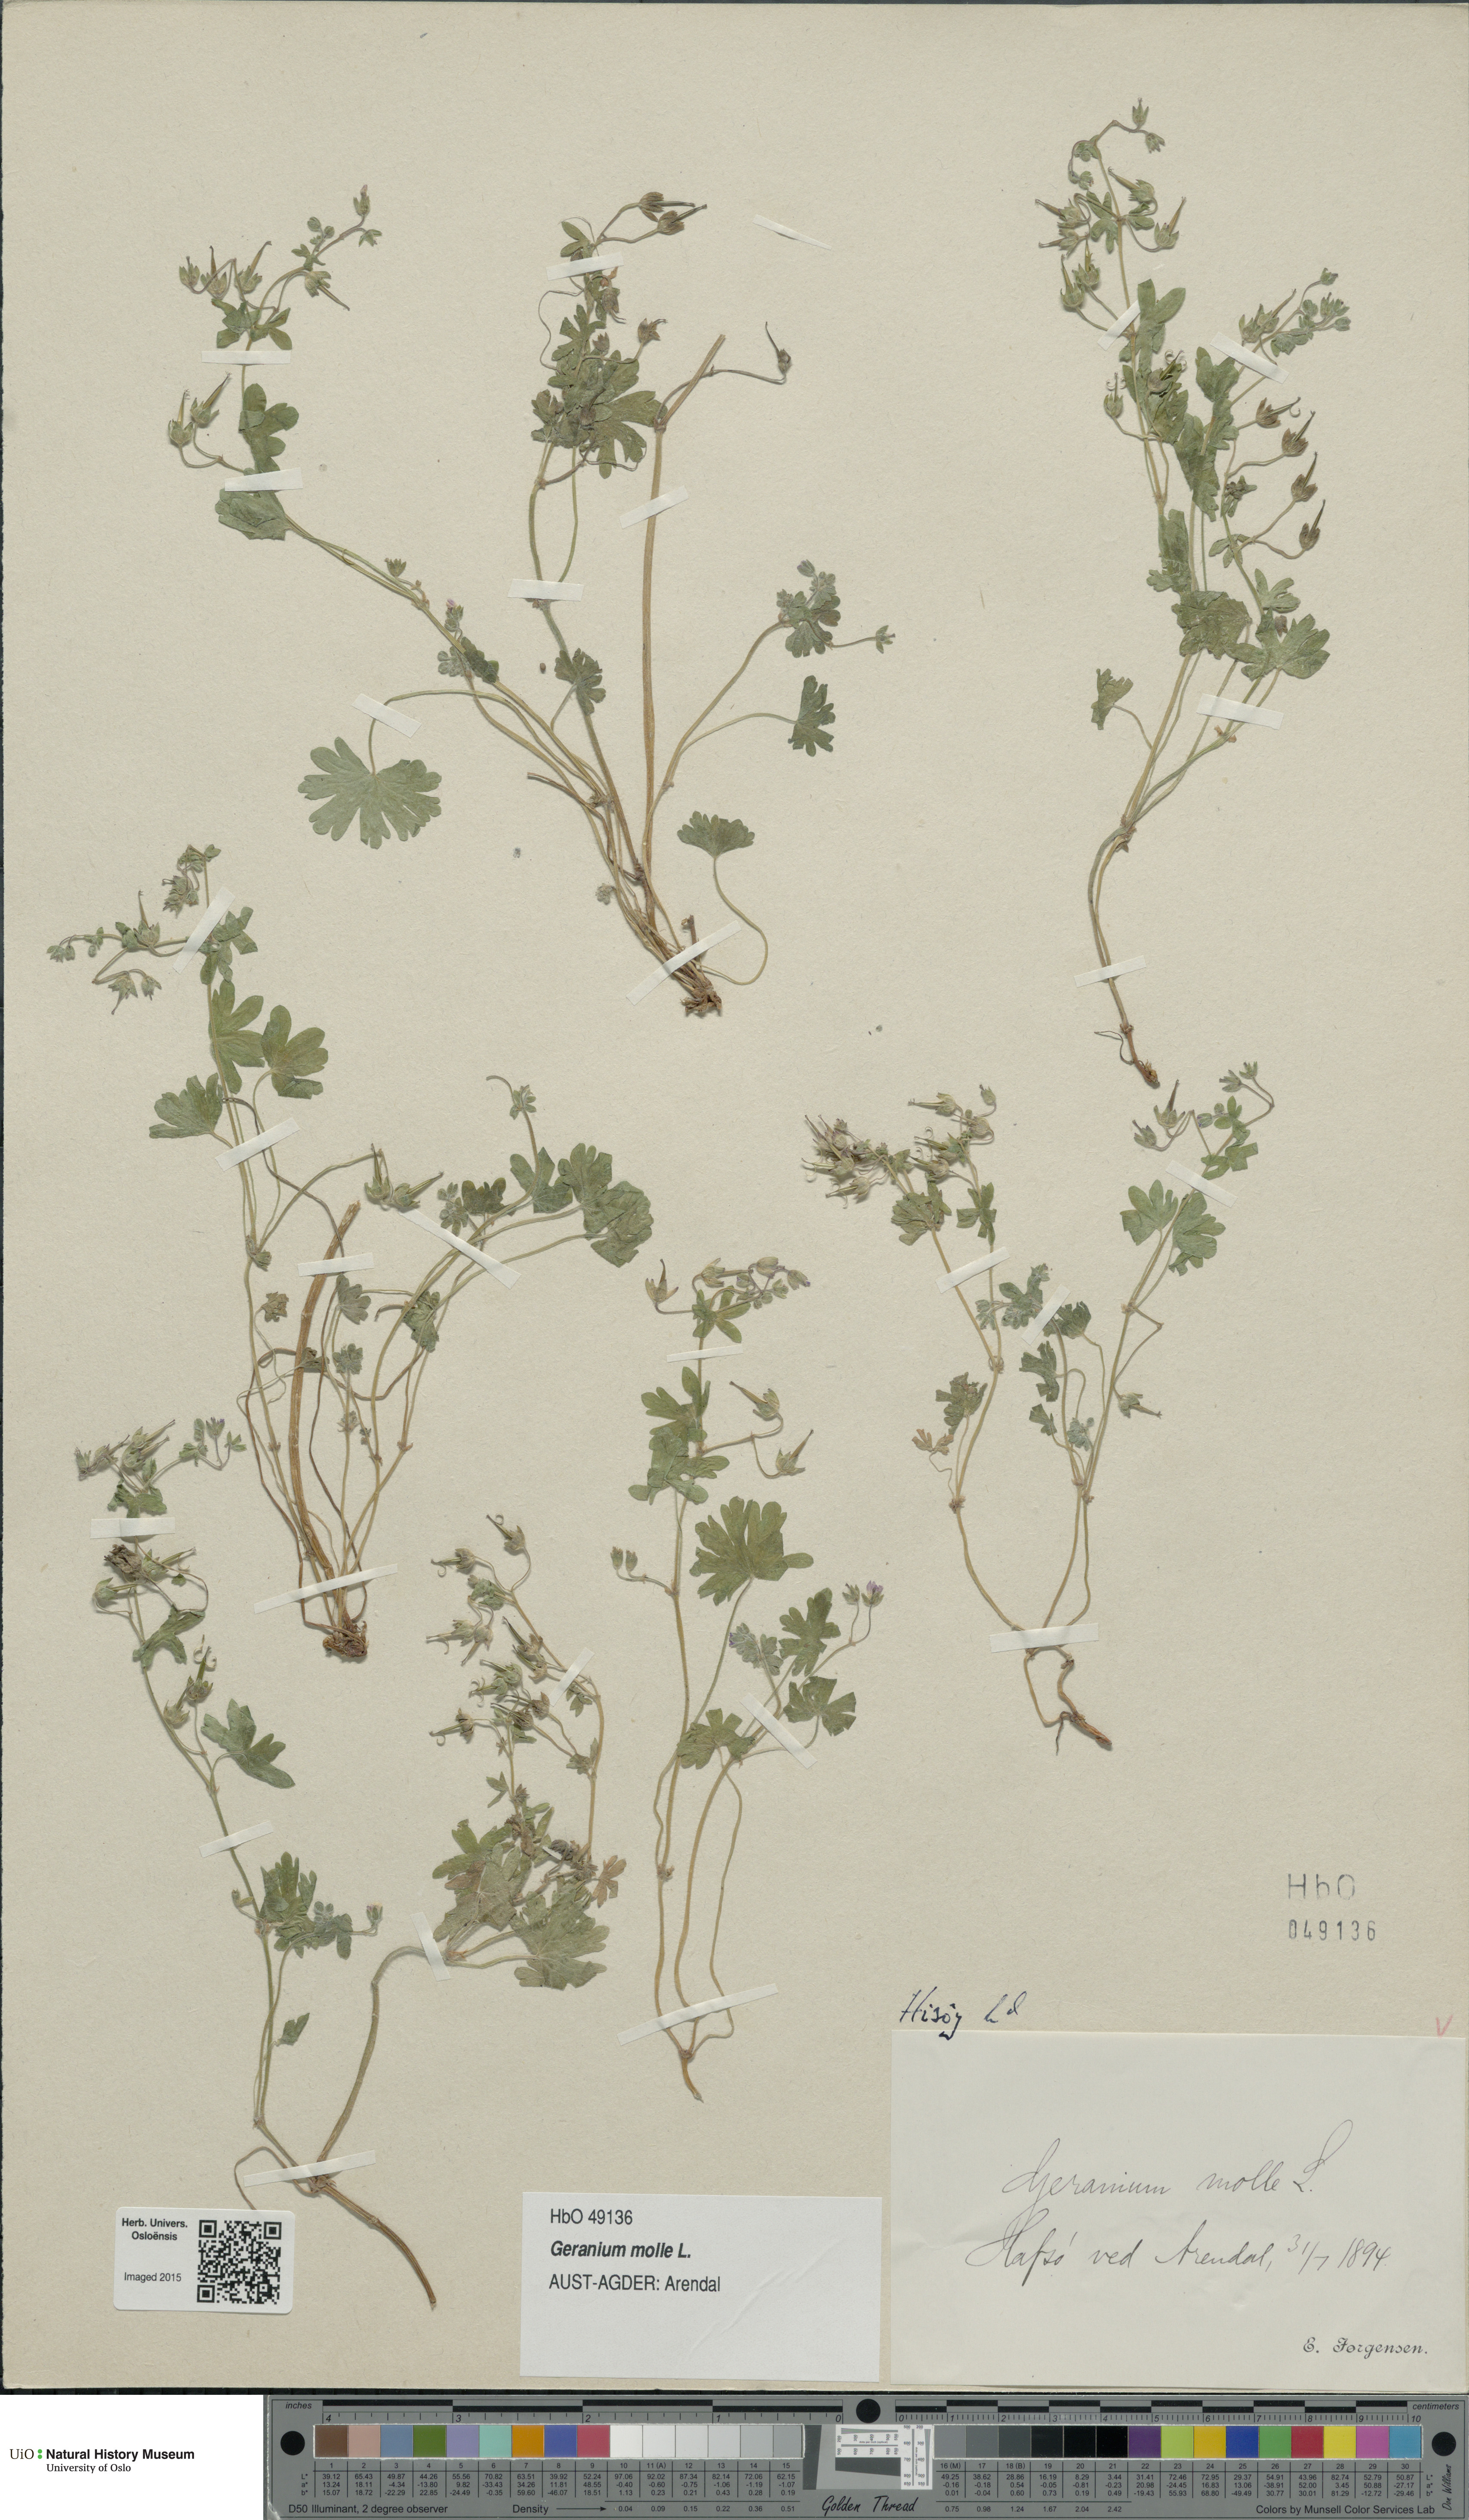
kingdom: Plantae
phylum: Tracheophyta
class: Magnoliopsida
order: Geraniales
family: Geraniaceae
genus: Geranium
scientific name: Geranium molle
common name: Dove's-foot crane's-bill
